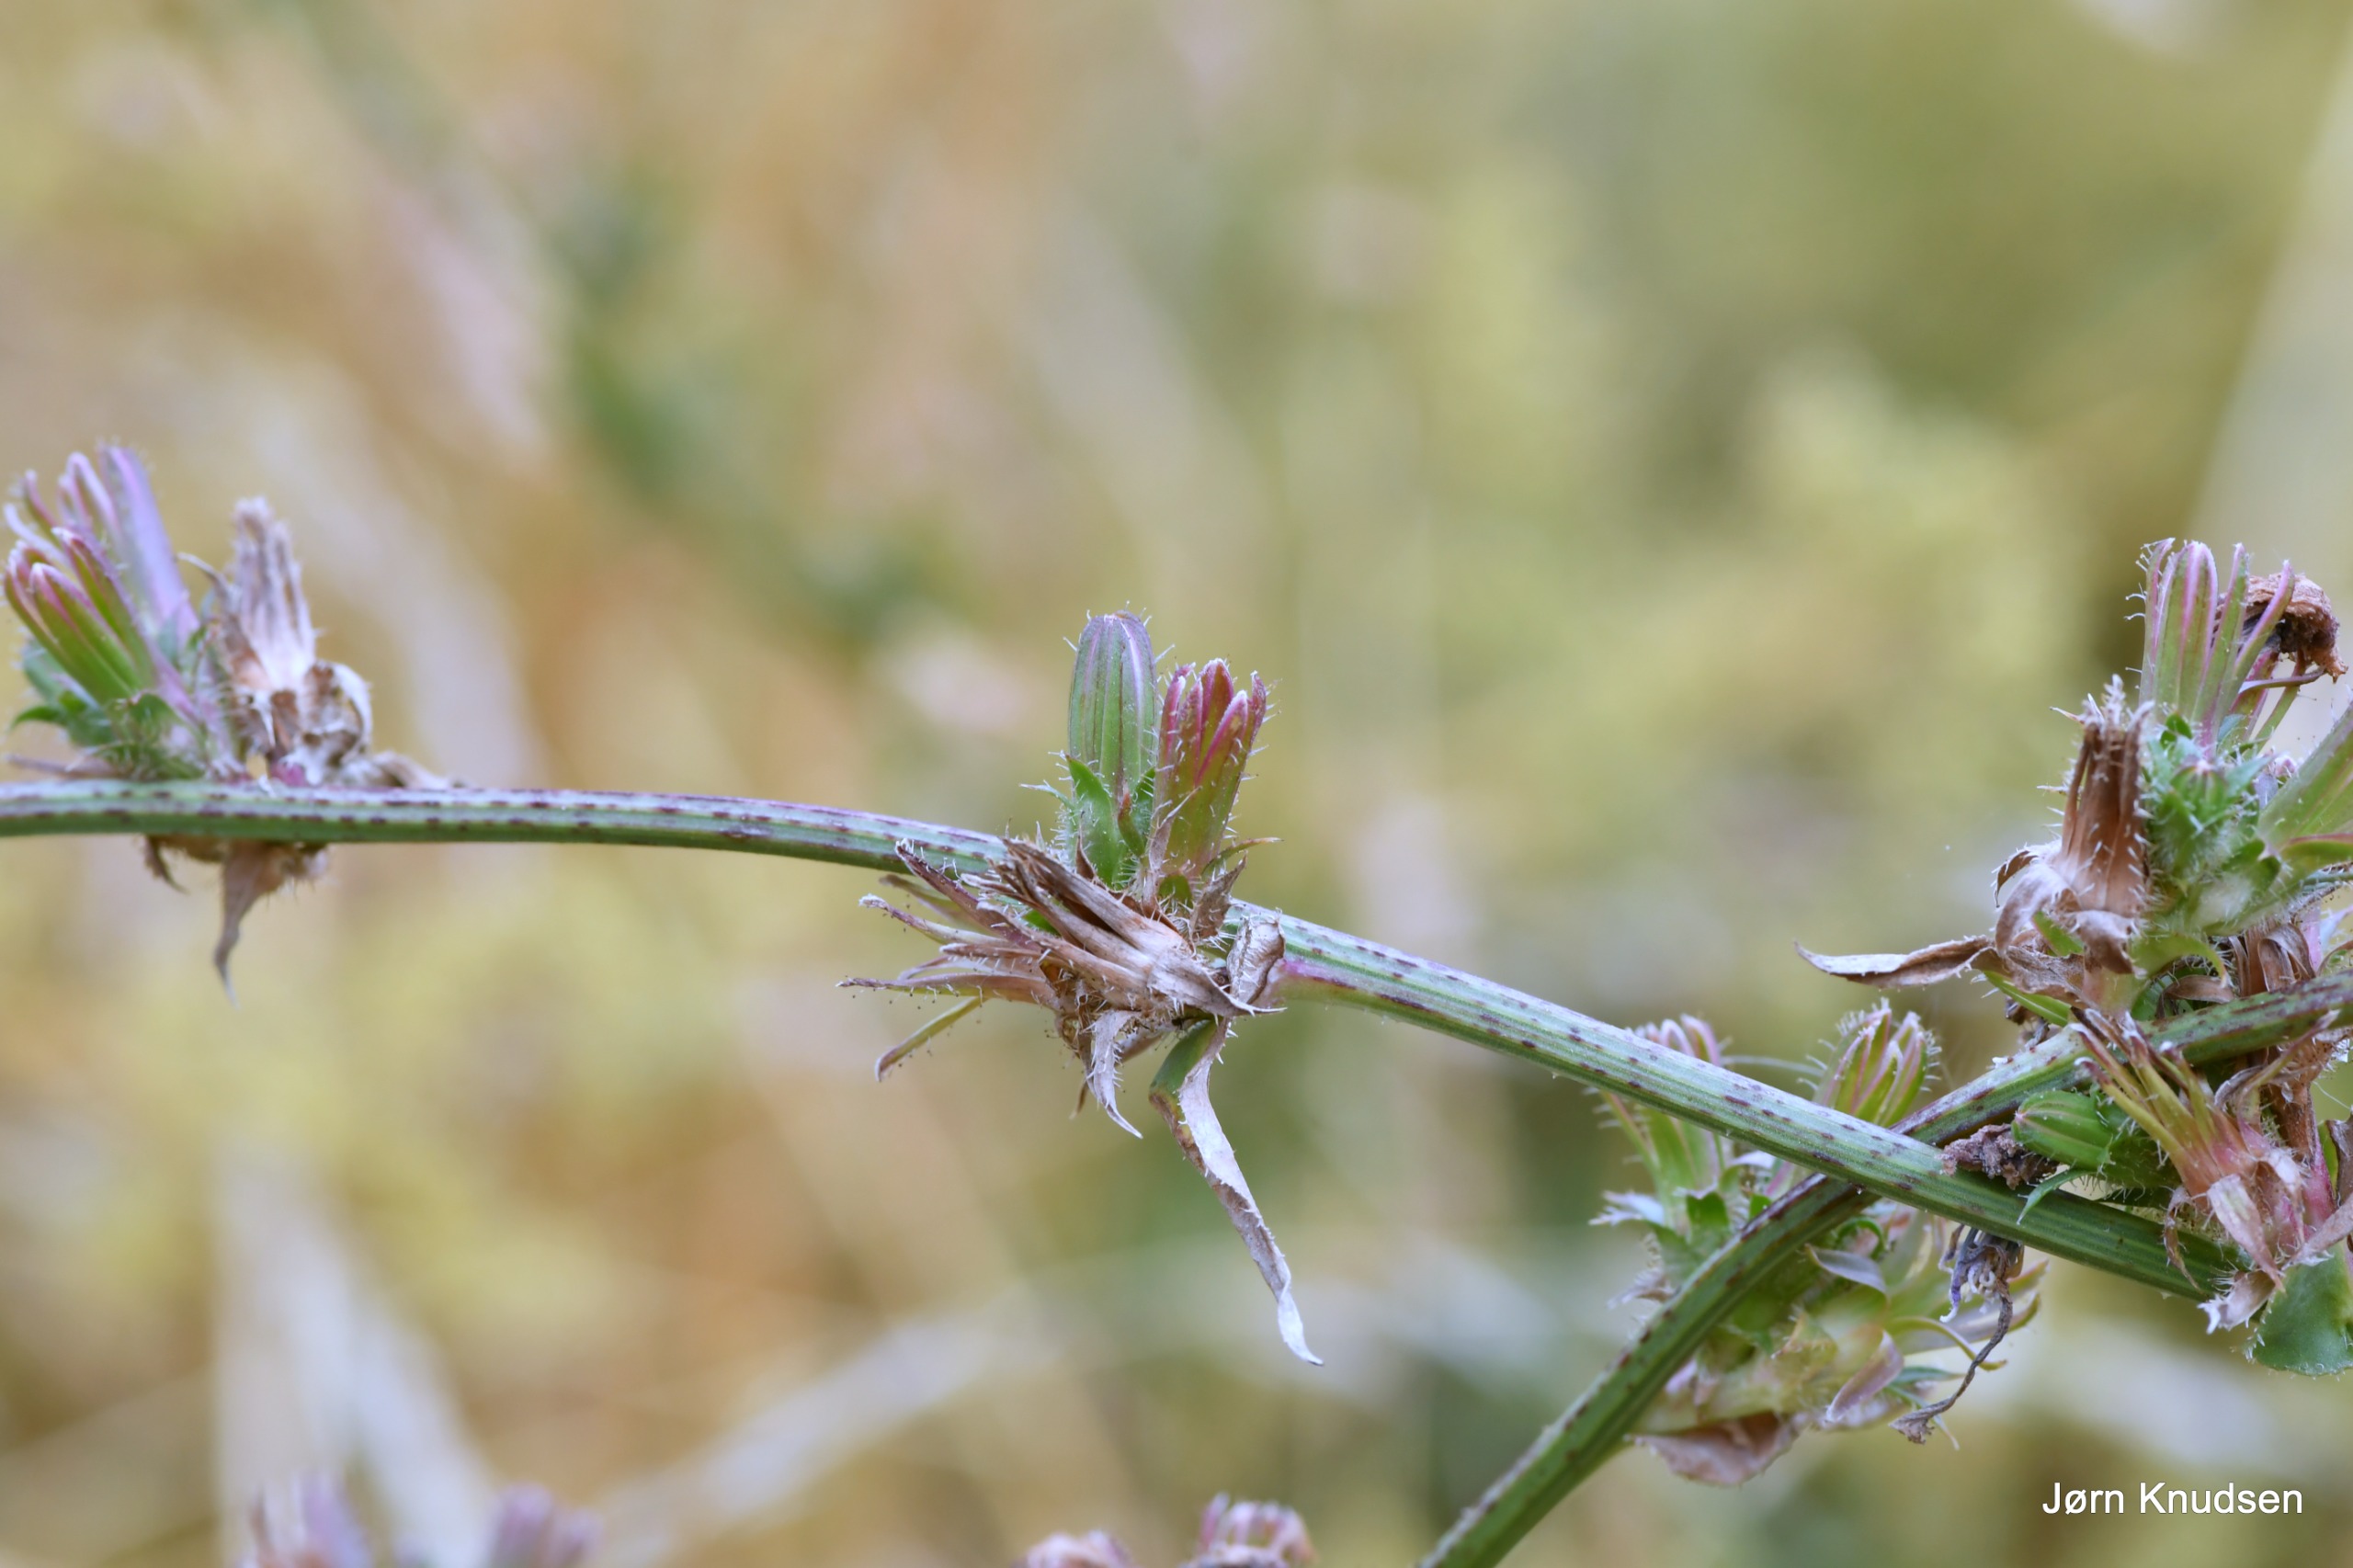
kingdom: Plantae
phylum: Tracheophyta
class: Magnoliopsida
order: Asterales
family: Asteraceae
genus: Cichorium
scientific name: Cichorium intybus
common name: Cikorie
